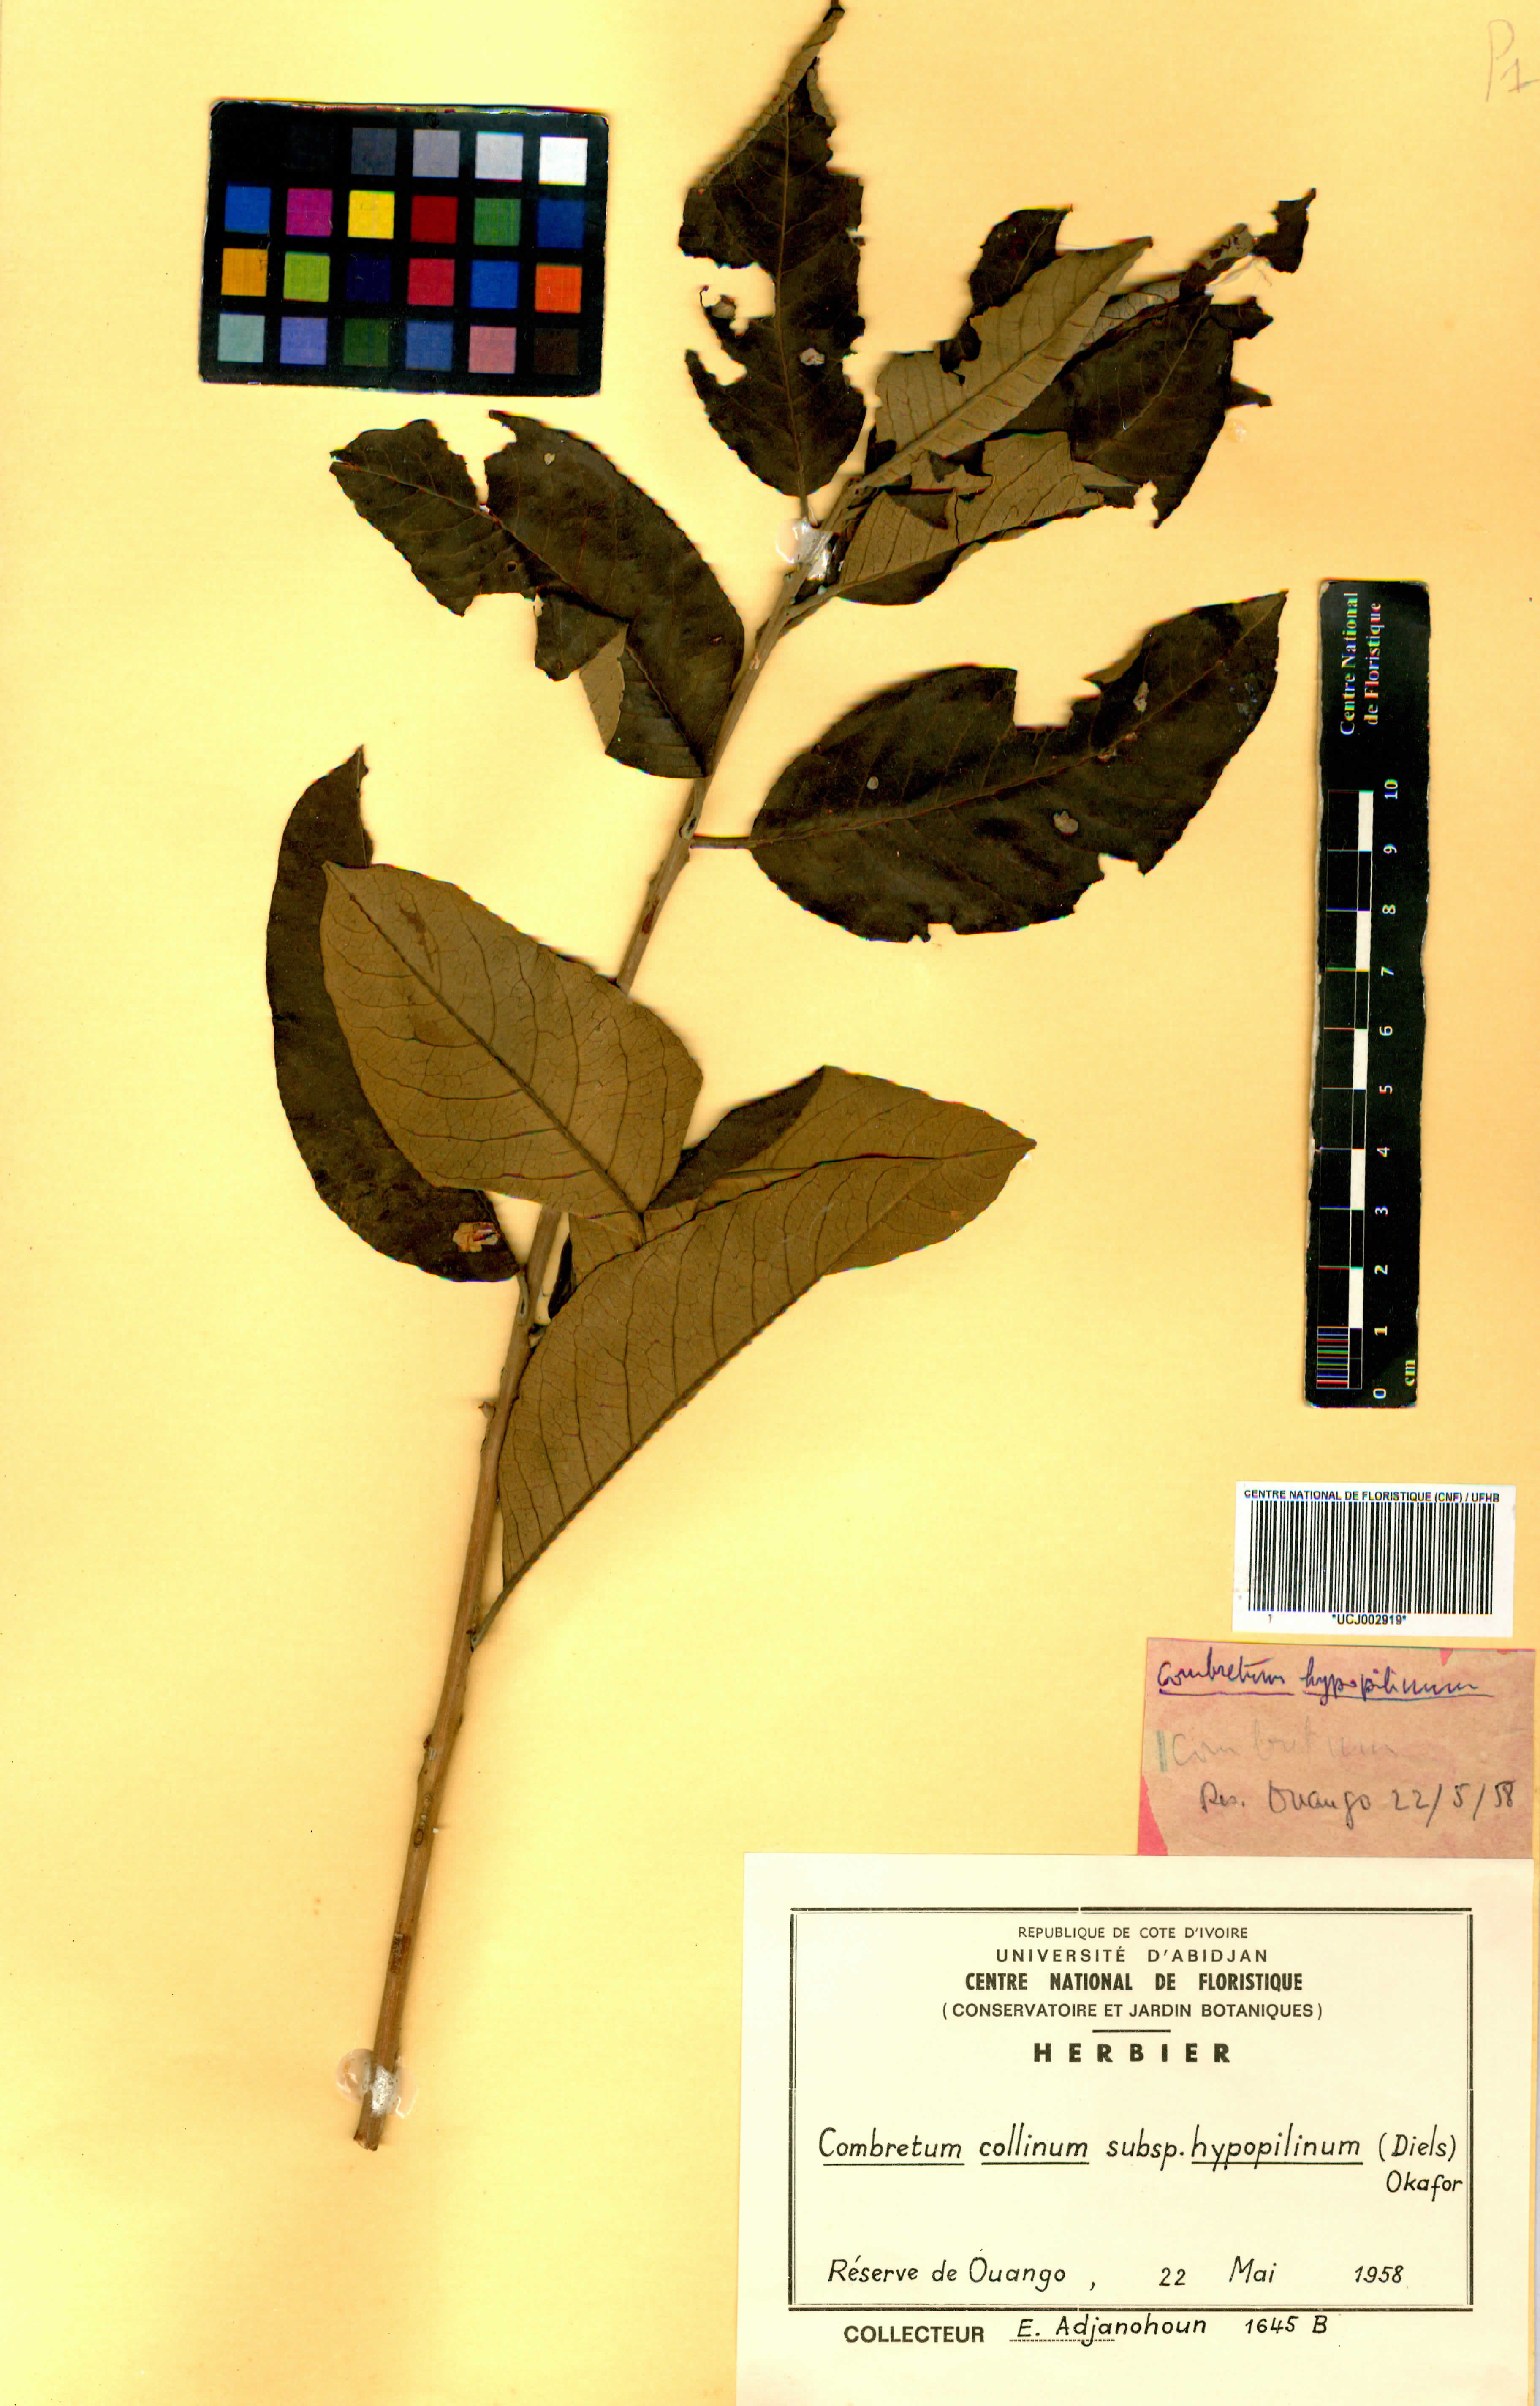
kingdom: Plantae
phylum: Tracheophyta
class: Magnoliopsida
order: Myrtales
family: Combretaceae
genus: Combretum
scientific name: Combretum collinum
